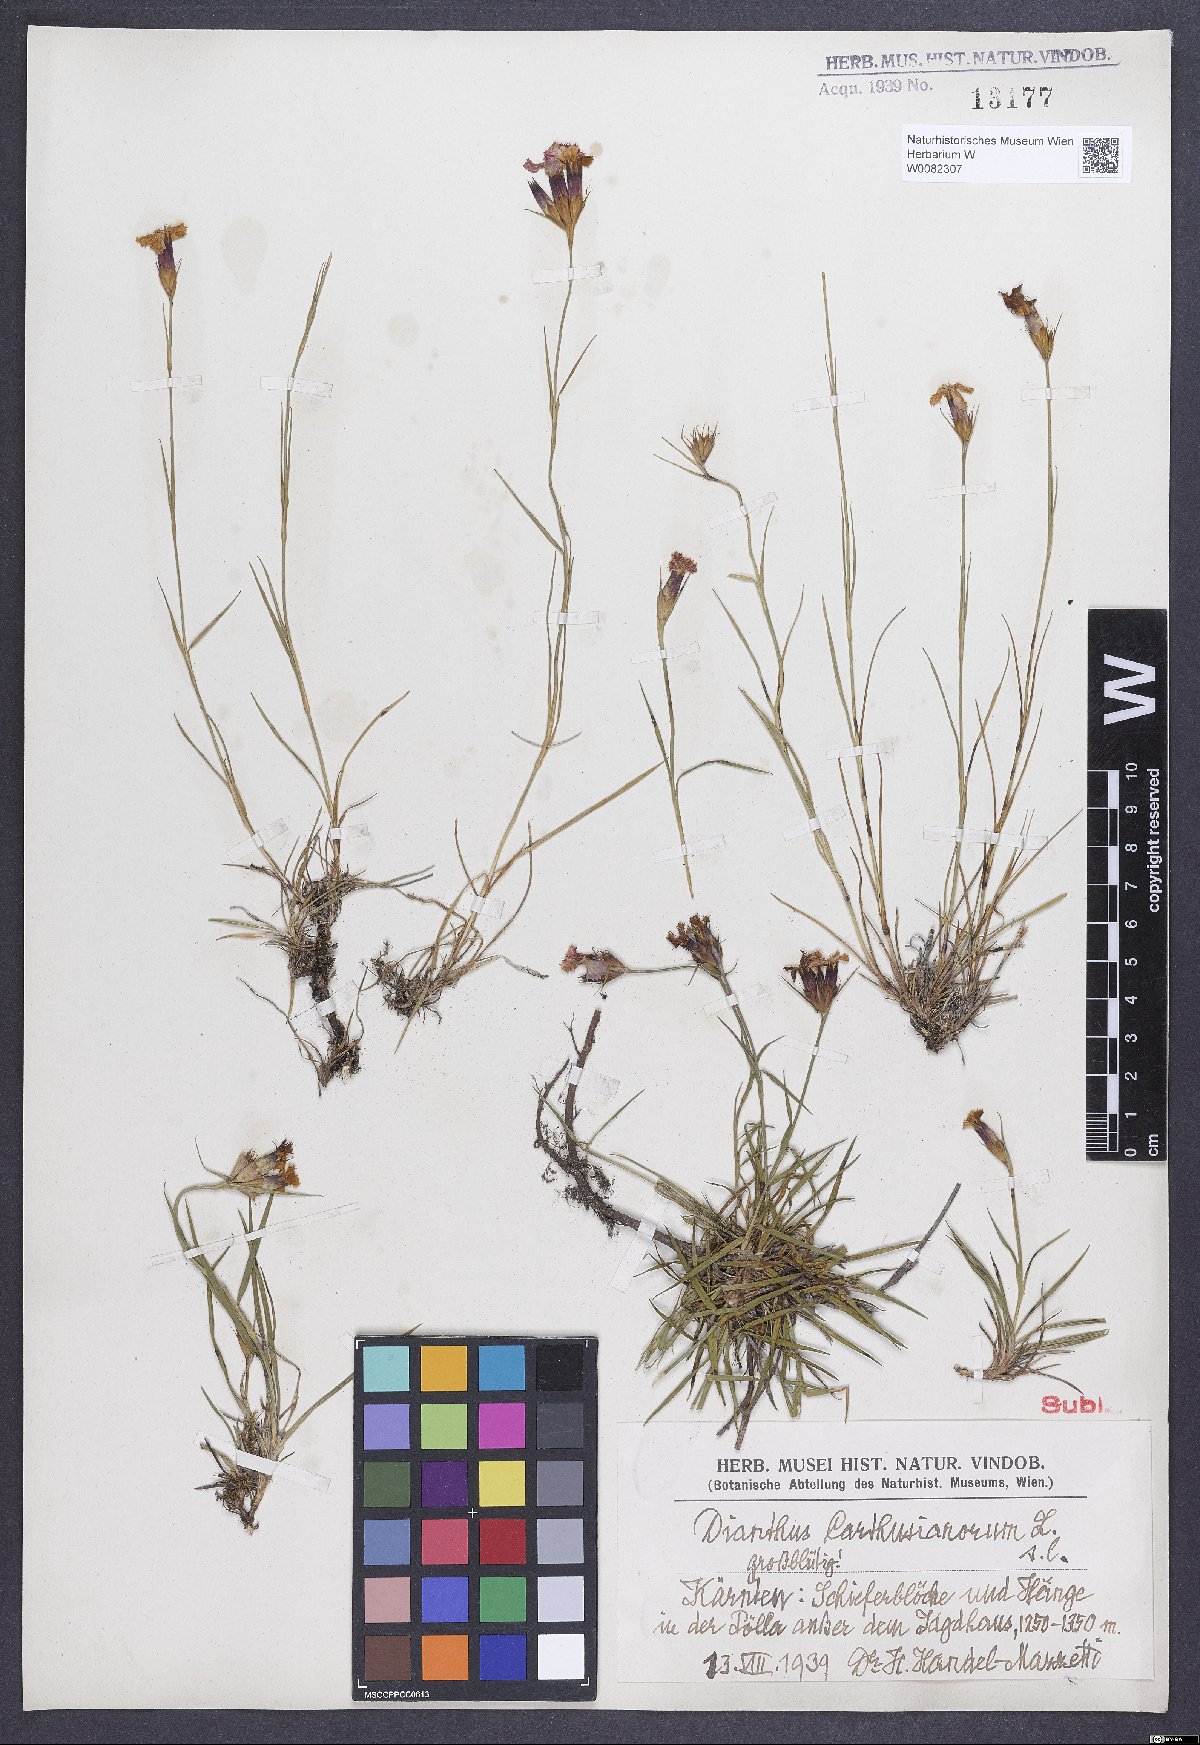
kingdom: Plantae
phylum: Tracheophyta
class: Magnoliopsida
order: Caryophyllales
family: Caryophyllaceae
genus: Dianthus
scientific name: Dianthus carthusianorum
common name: Carthusian pink
